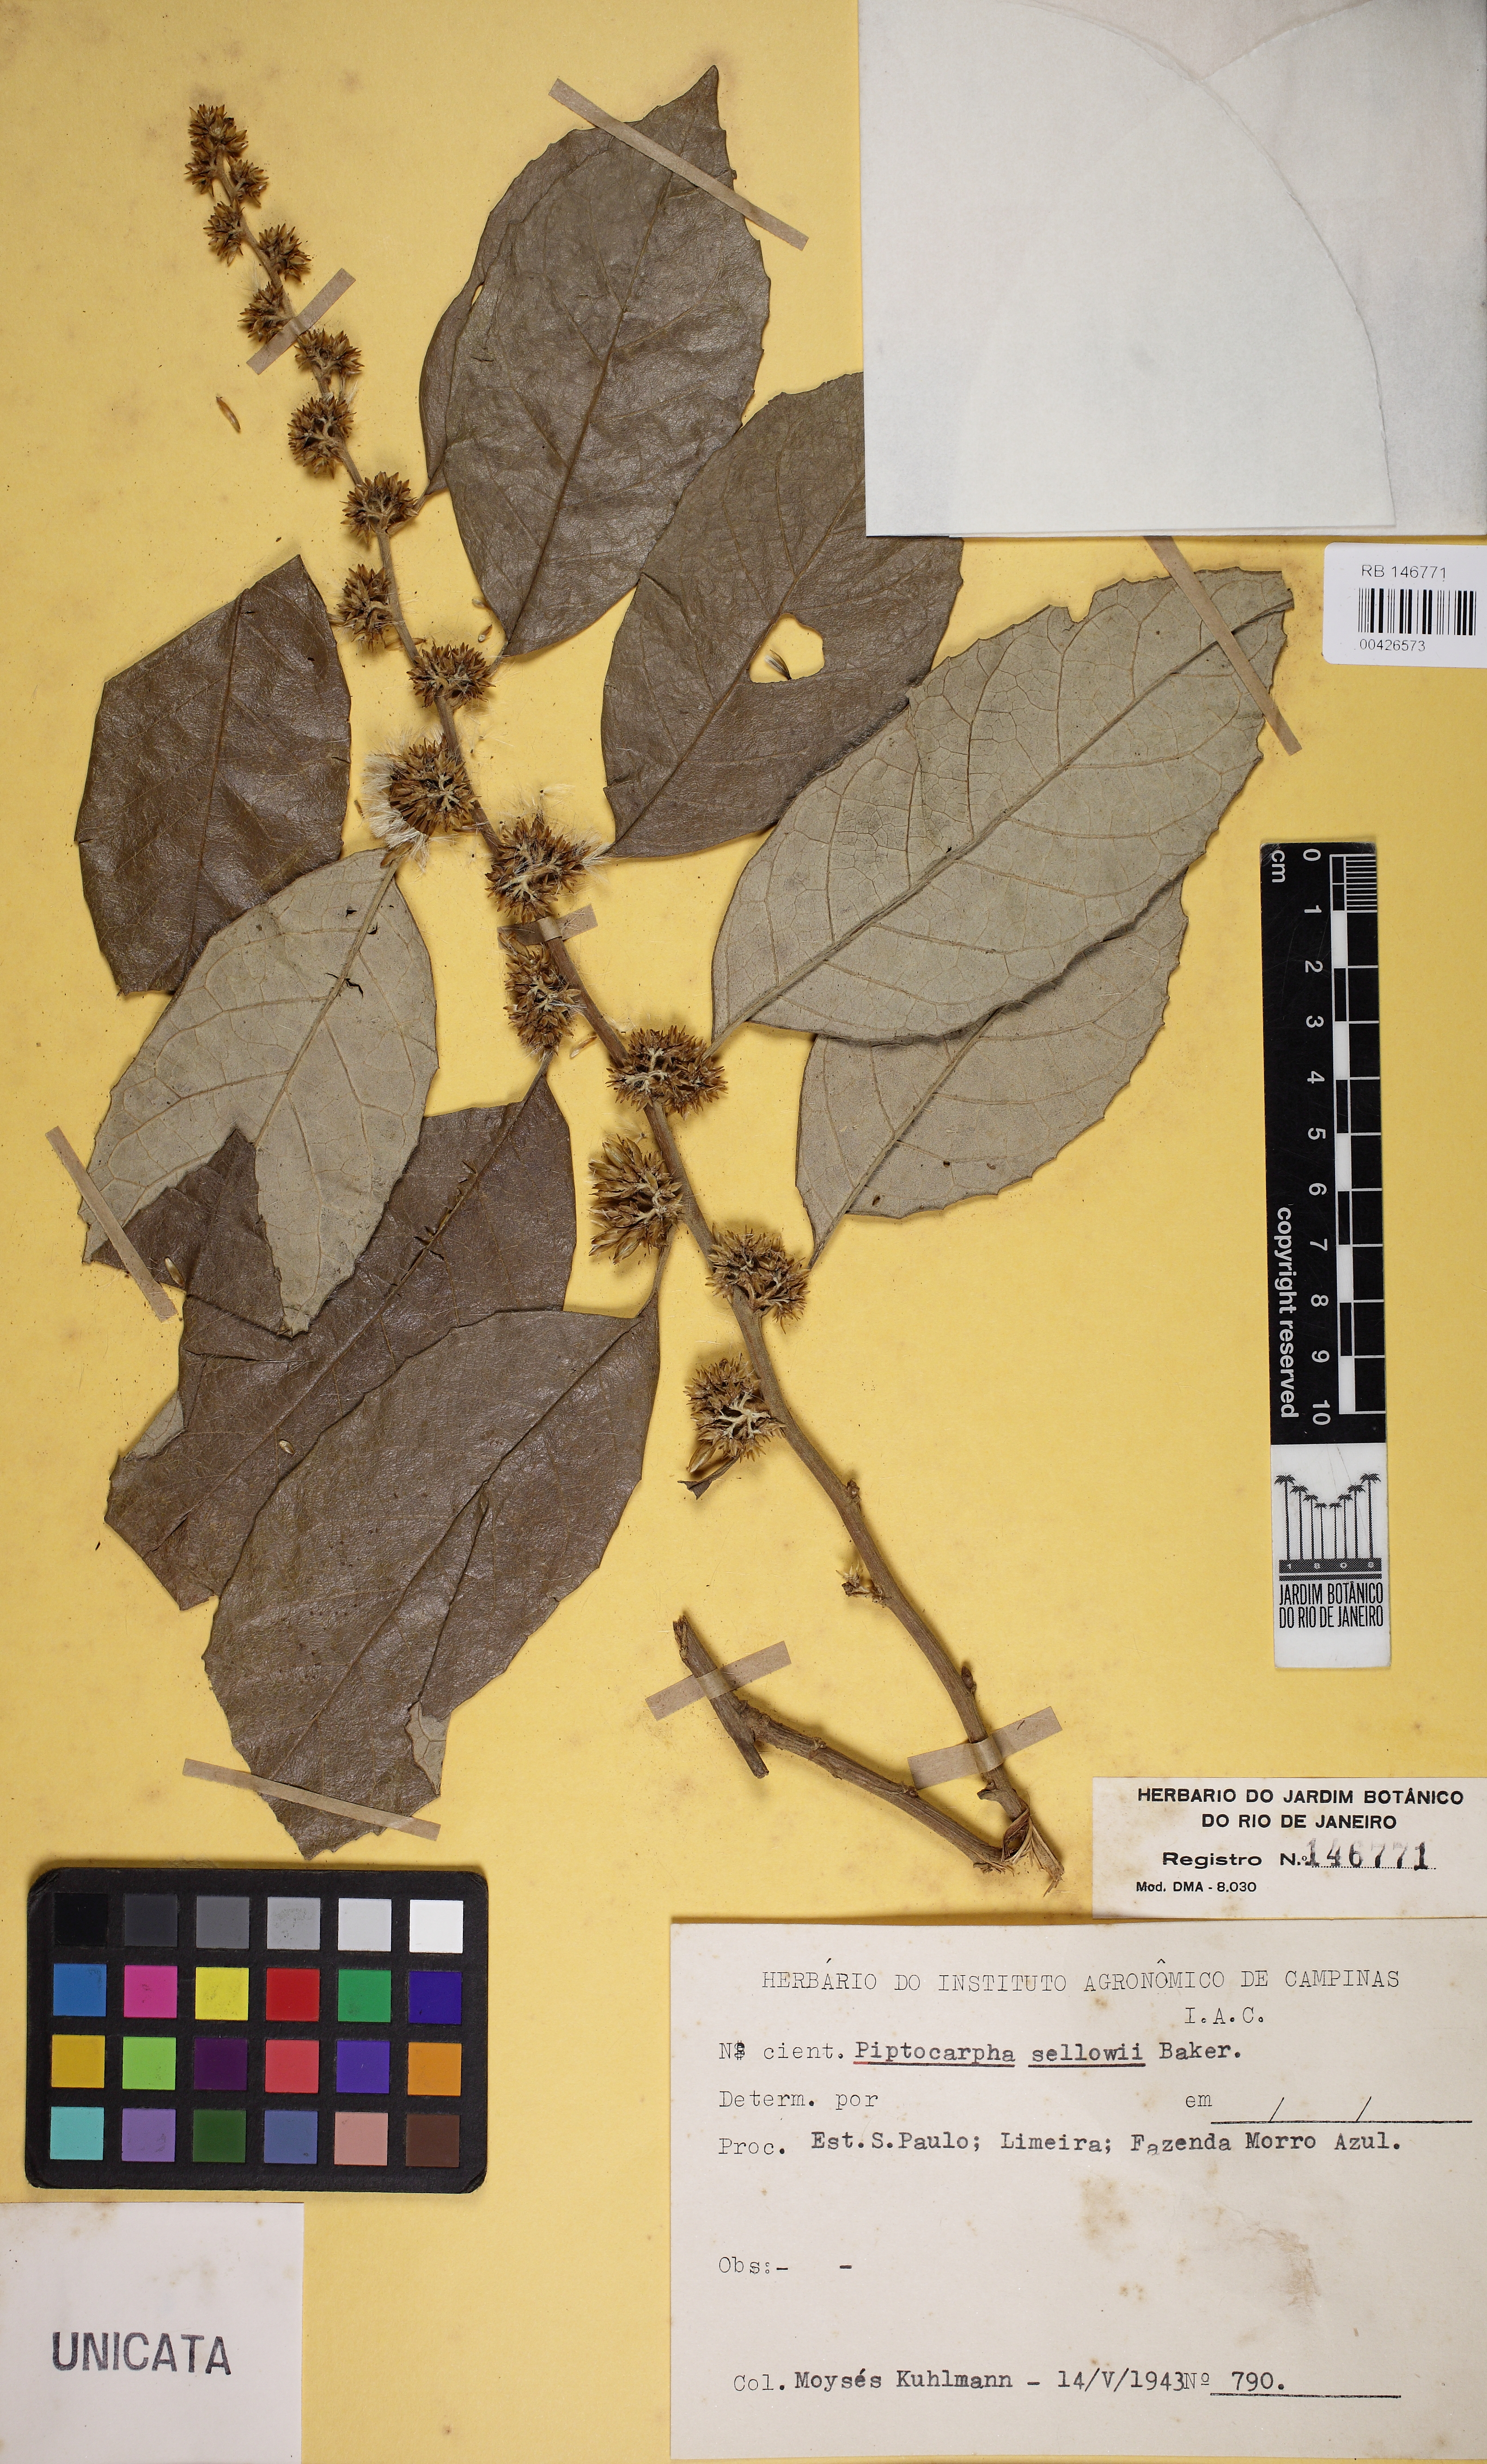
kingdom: Plantae
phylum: Tracheophyta
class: Magnoliopsida
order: Asterales
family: Asteraceae
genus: Piptocarpha
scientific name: Piptocarpha sellowii
